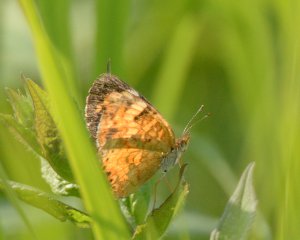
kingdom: Animalia
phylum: Arthropoda
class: Insecta
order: Lepidoptera
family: Nymphalidae
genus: Phyciodes
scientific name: Phyciodes tharos
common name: Northern Crescent
